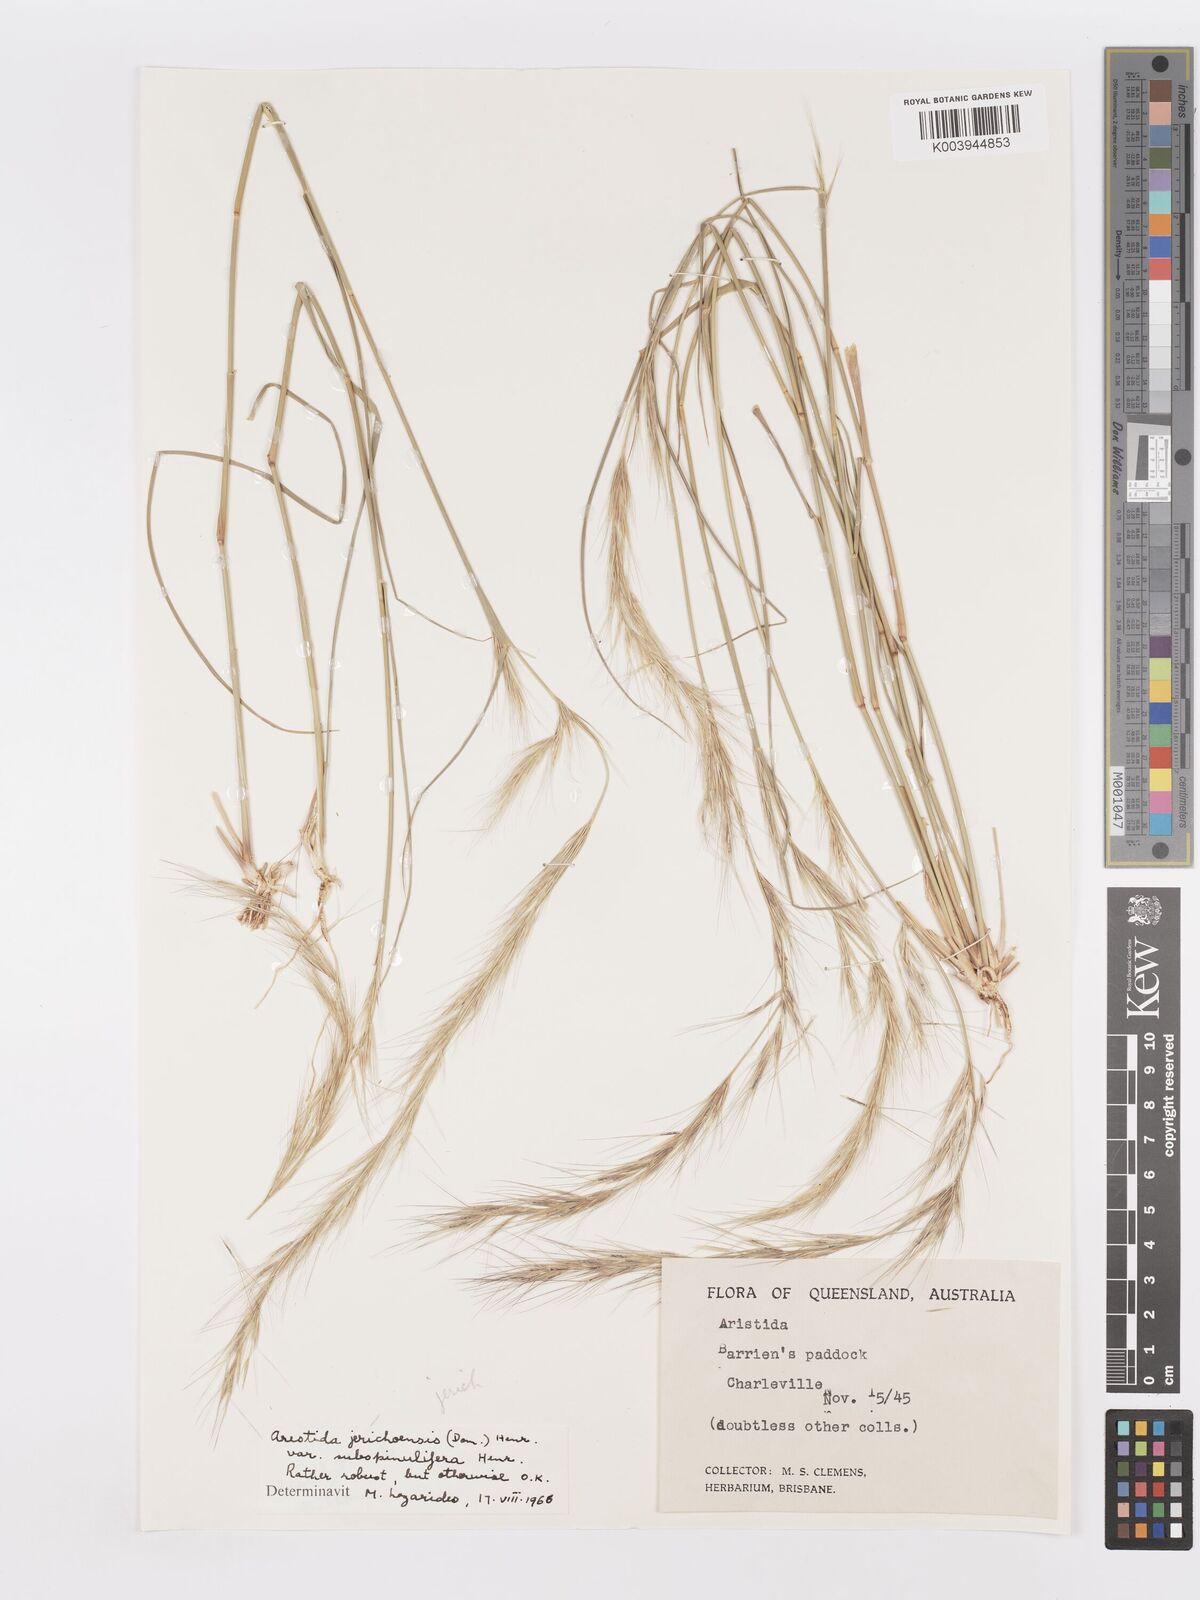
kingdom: Plantae
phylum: Tracheophyta
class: Liliopsida
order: Poales
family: Poaceae
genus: Aristida
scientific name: Aristida jerichoensis
